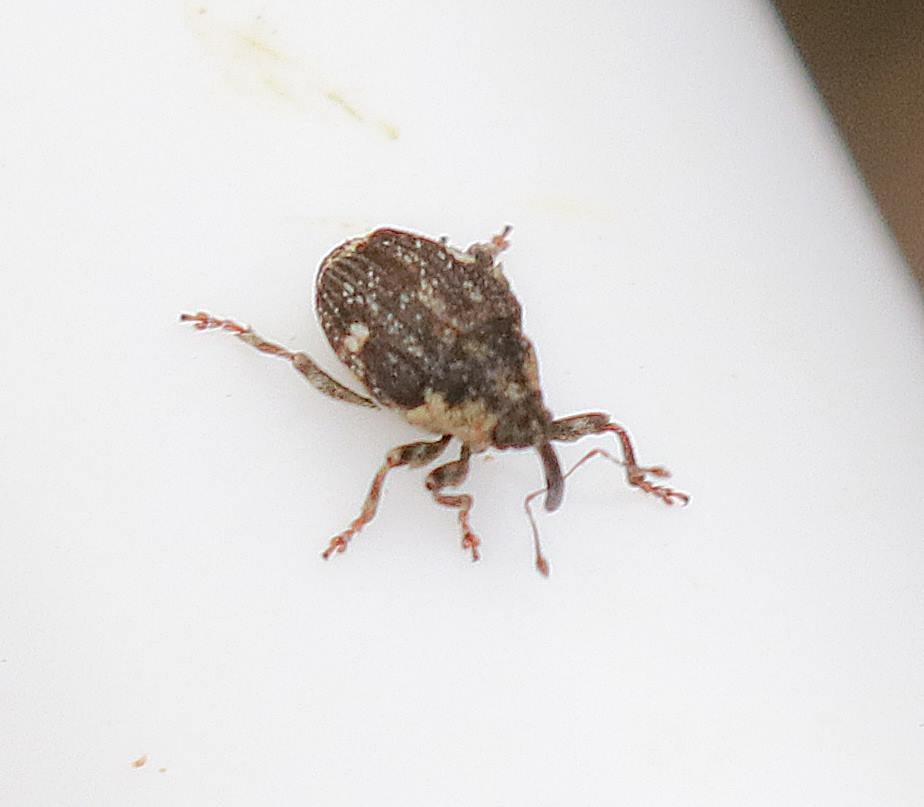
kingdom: Animalia
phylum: Arthropoda
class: Insecta
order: Coleoptera
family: Curculionidae
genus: Nedyus
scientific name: Nedyus quadrimaculatus
